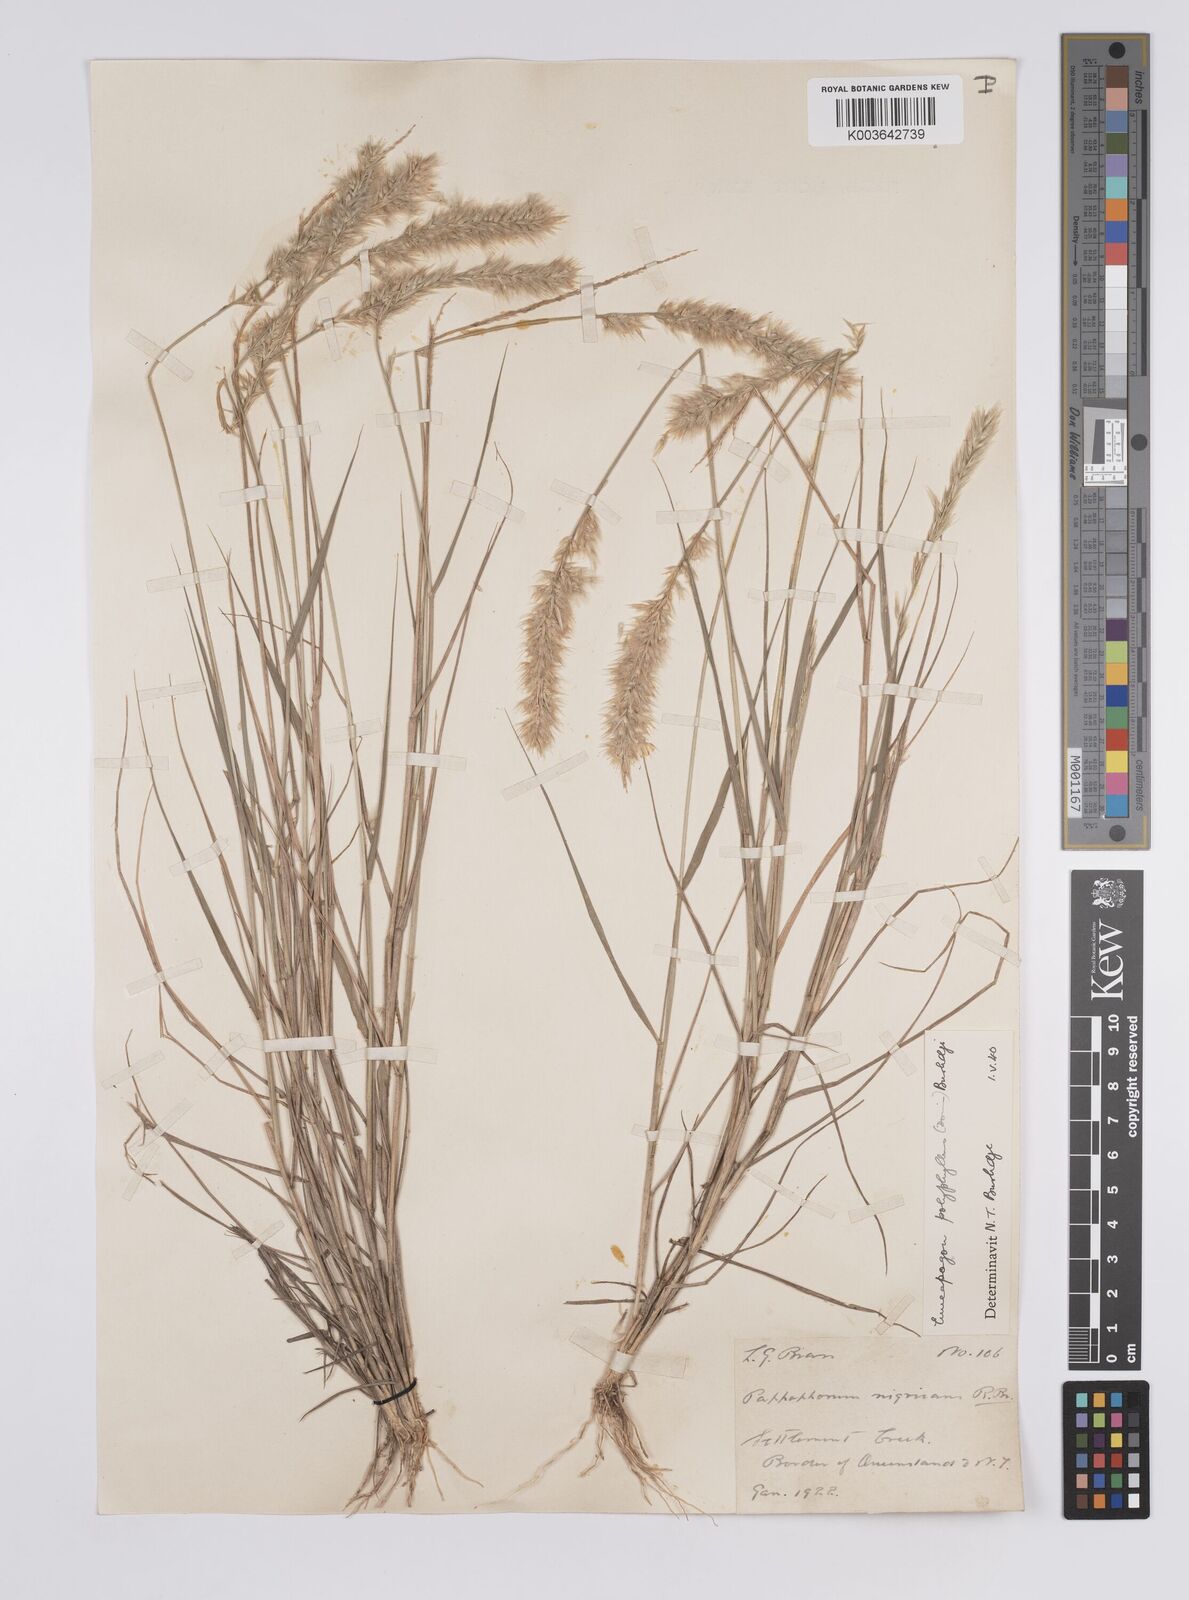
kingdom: Plantae
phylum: Tracheophyta
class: Liliopsida
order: Poales
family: Poaceae
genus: Enneapogon
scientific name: Enneapogon polyphyllus
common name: Leafy nineawn
